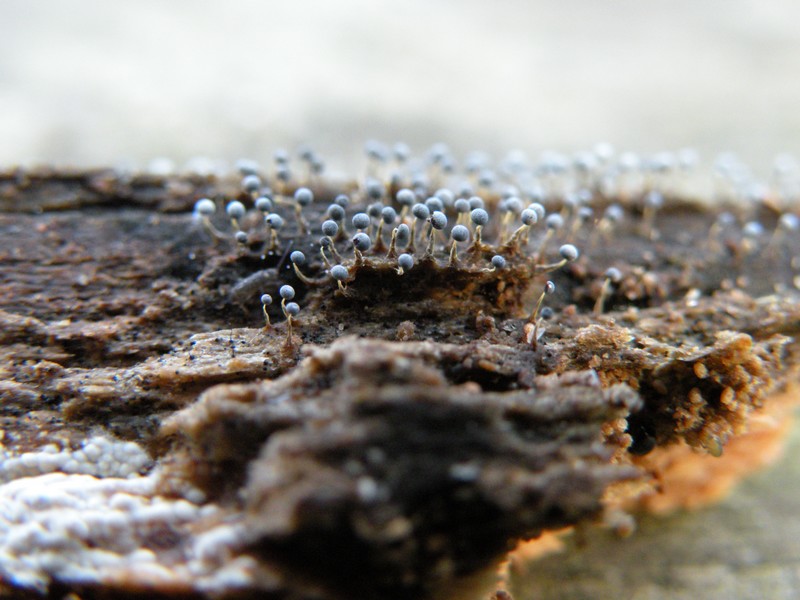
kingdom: Protozoa
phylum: Mycetozoa
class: Myxomycetes
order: Physarales
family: Physaraceae
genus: Physarum
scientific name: Physarum album
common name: nikkende støvknop
